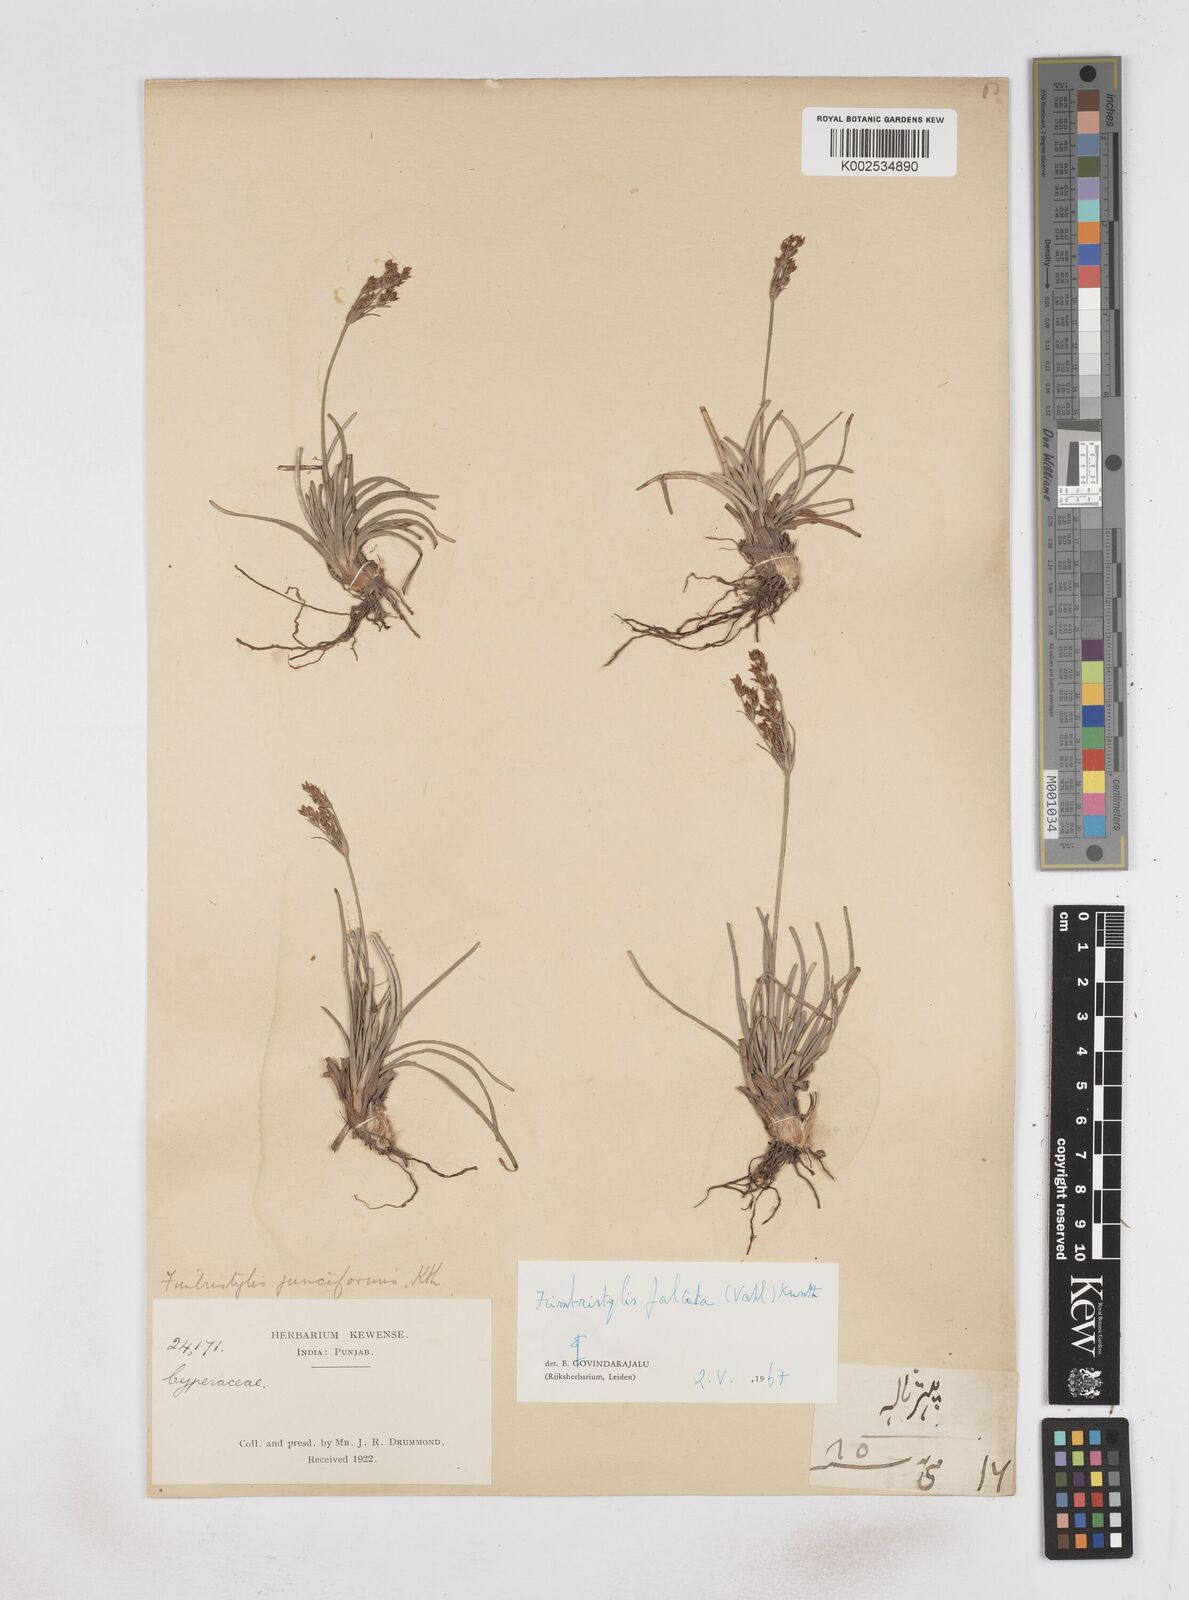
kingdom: Plantae
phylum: Tracheophyta
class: Liliopsida
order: Poales
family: Cyperaceae
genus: Fimbristylis
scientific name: Fimbristylis falcata
